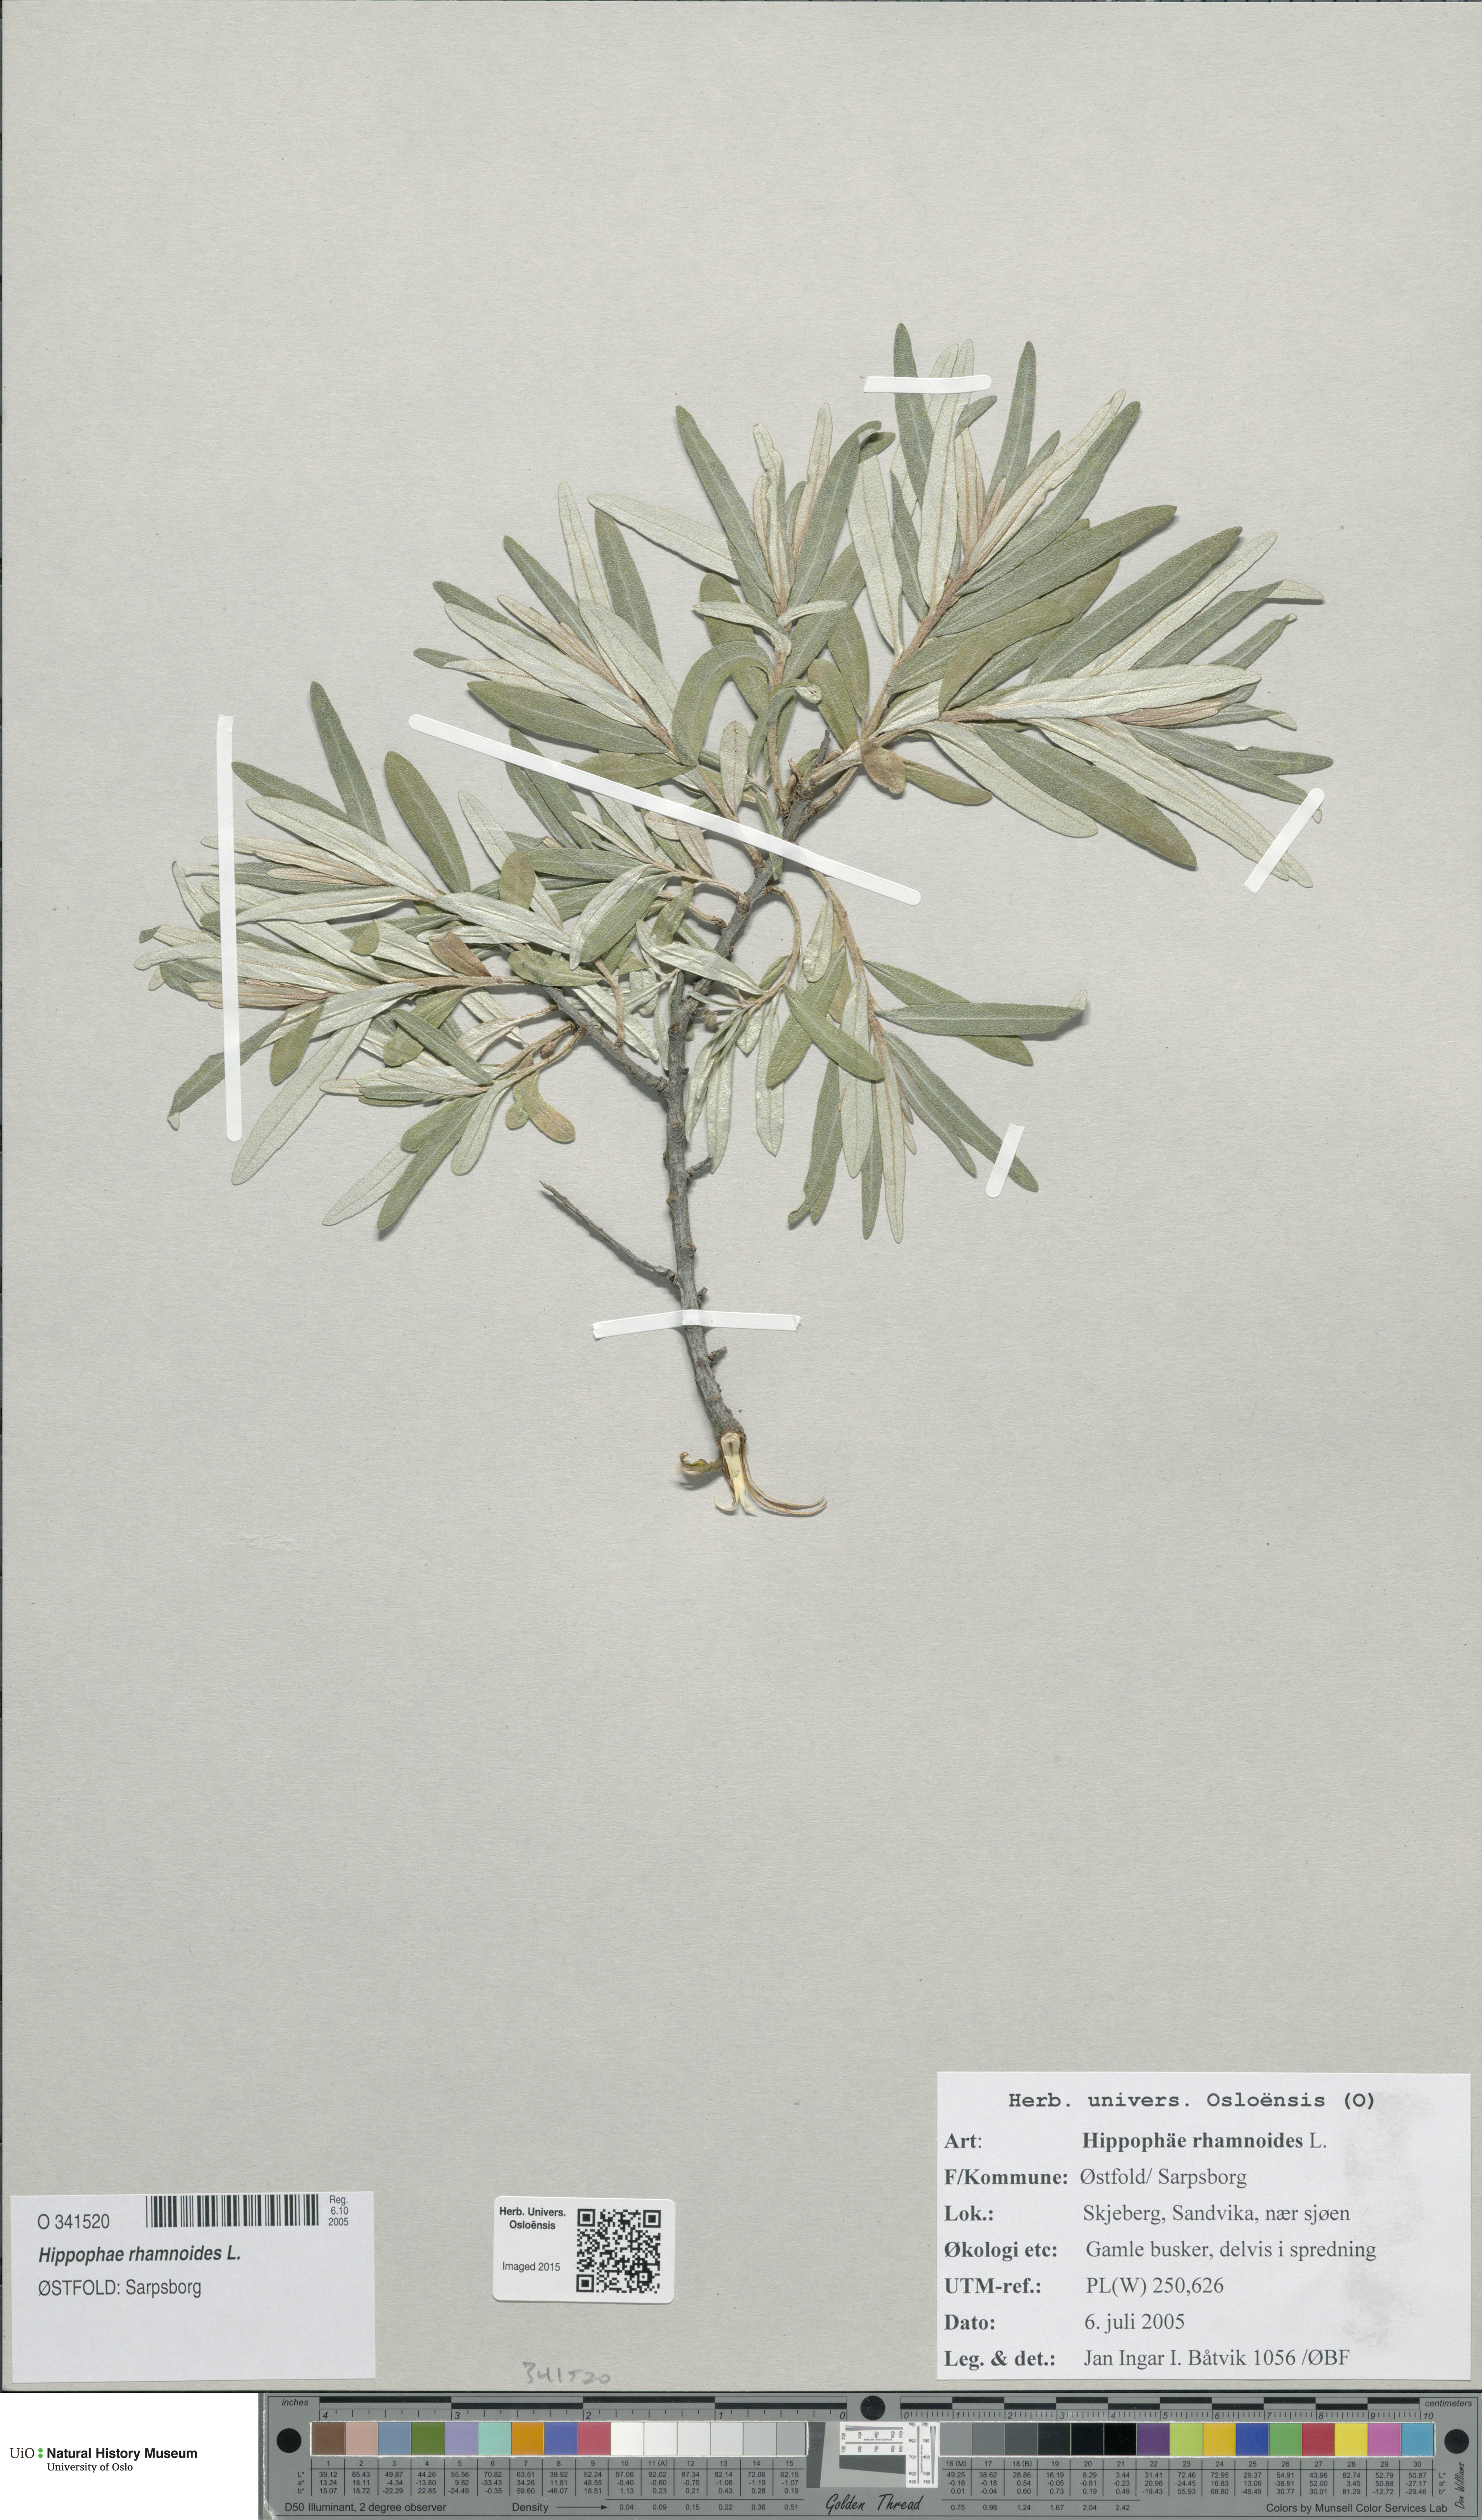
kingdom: Plantae
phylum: Tracheophyta
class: Magnoliopsida
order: Rosales
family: Elaeagnaceae
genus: Hippophae
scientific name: Hippophae rhamnoides
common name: Sea-buckthorn
